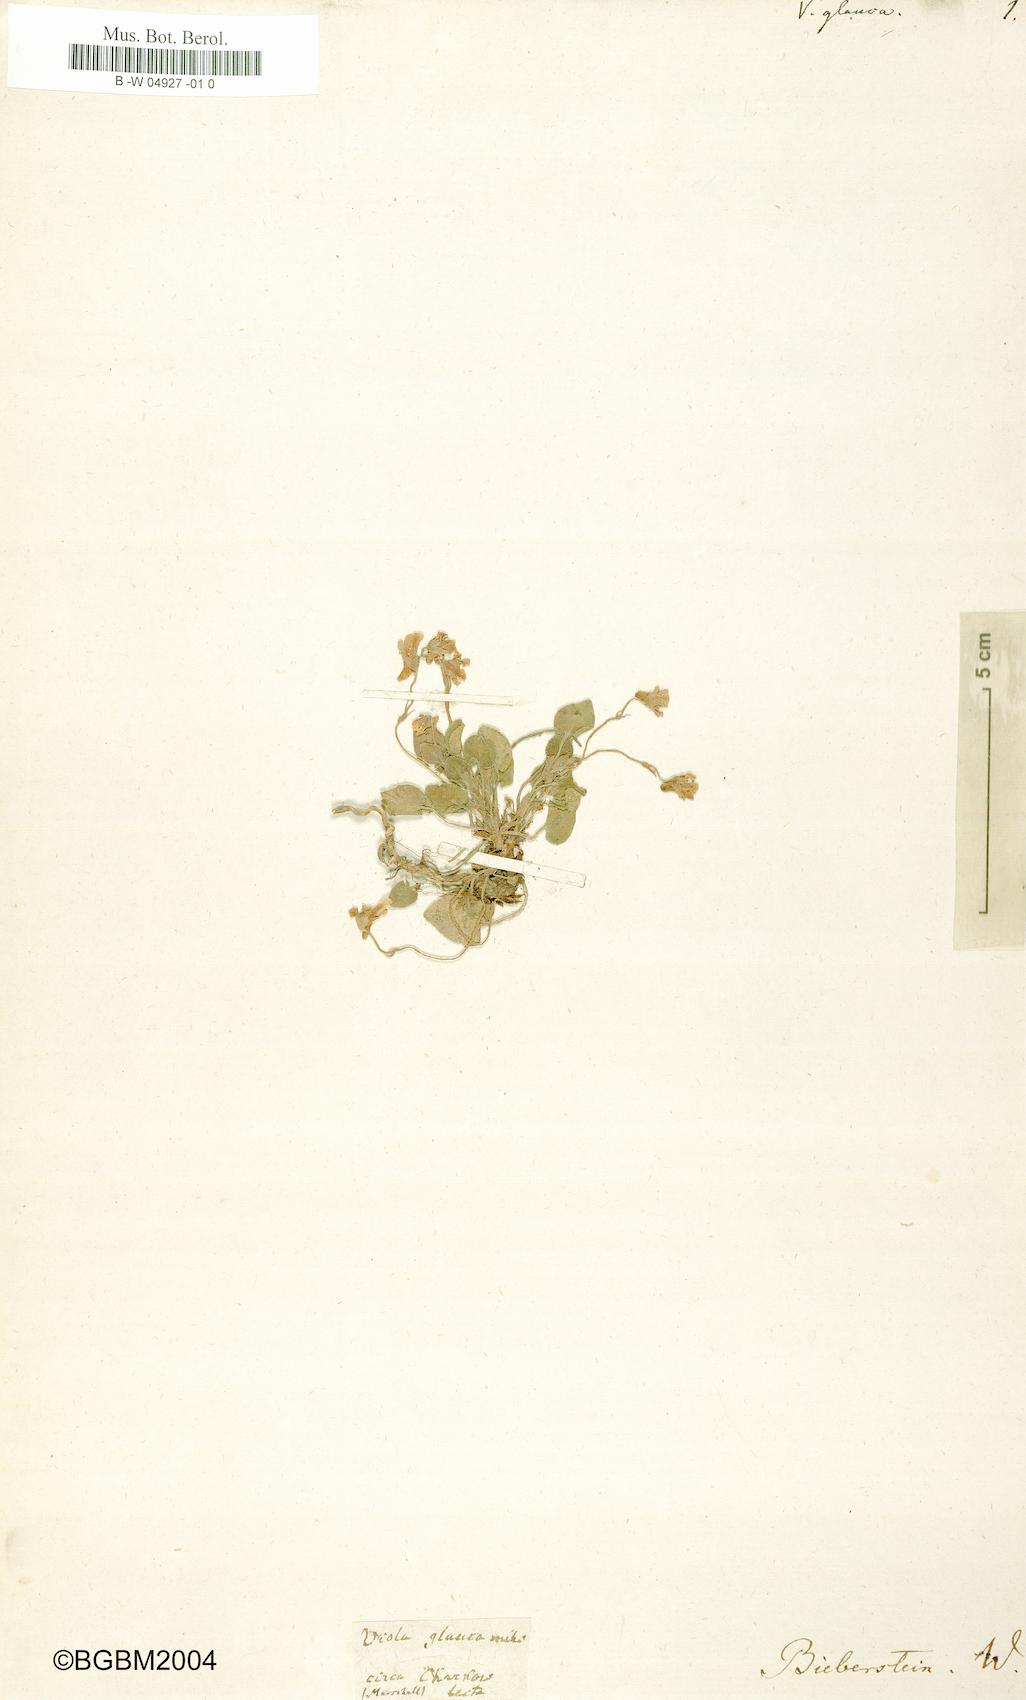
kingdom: Plantae
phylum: Tracheophyta
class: Magnoliopsida
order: Malpighiales
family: Violaceae
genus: Viola
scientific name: Viola rupestris
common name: Teesdale violet
